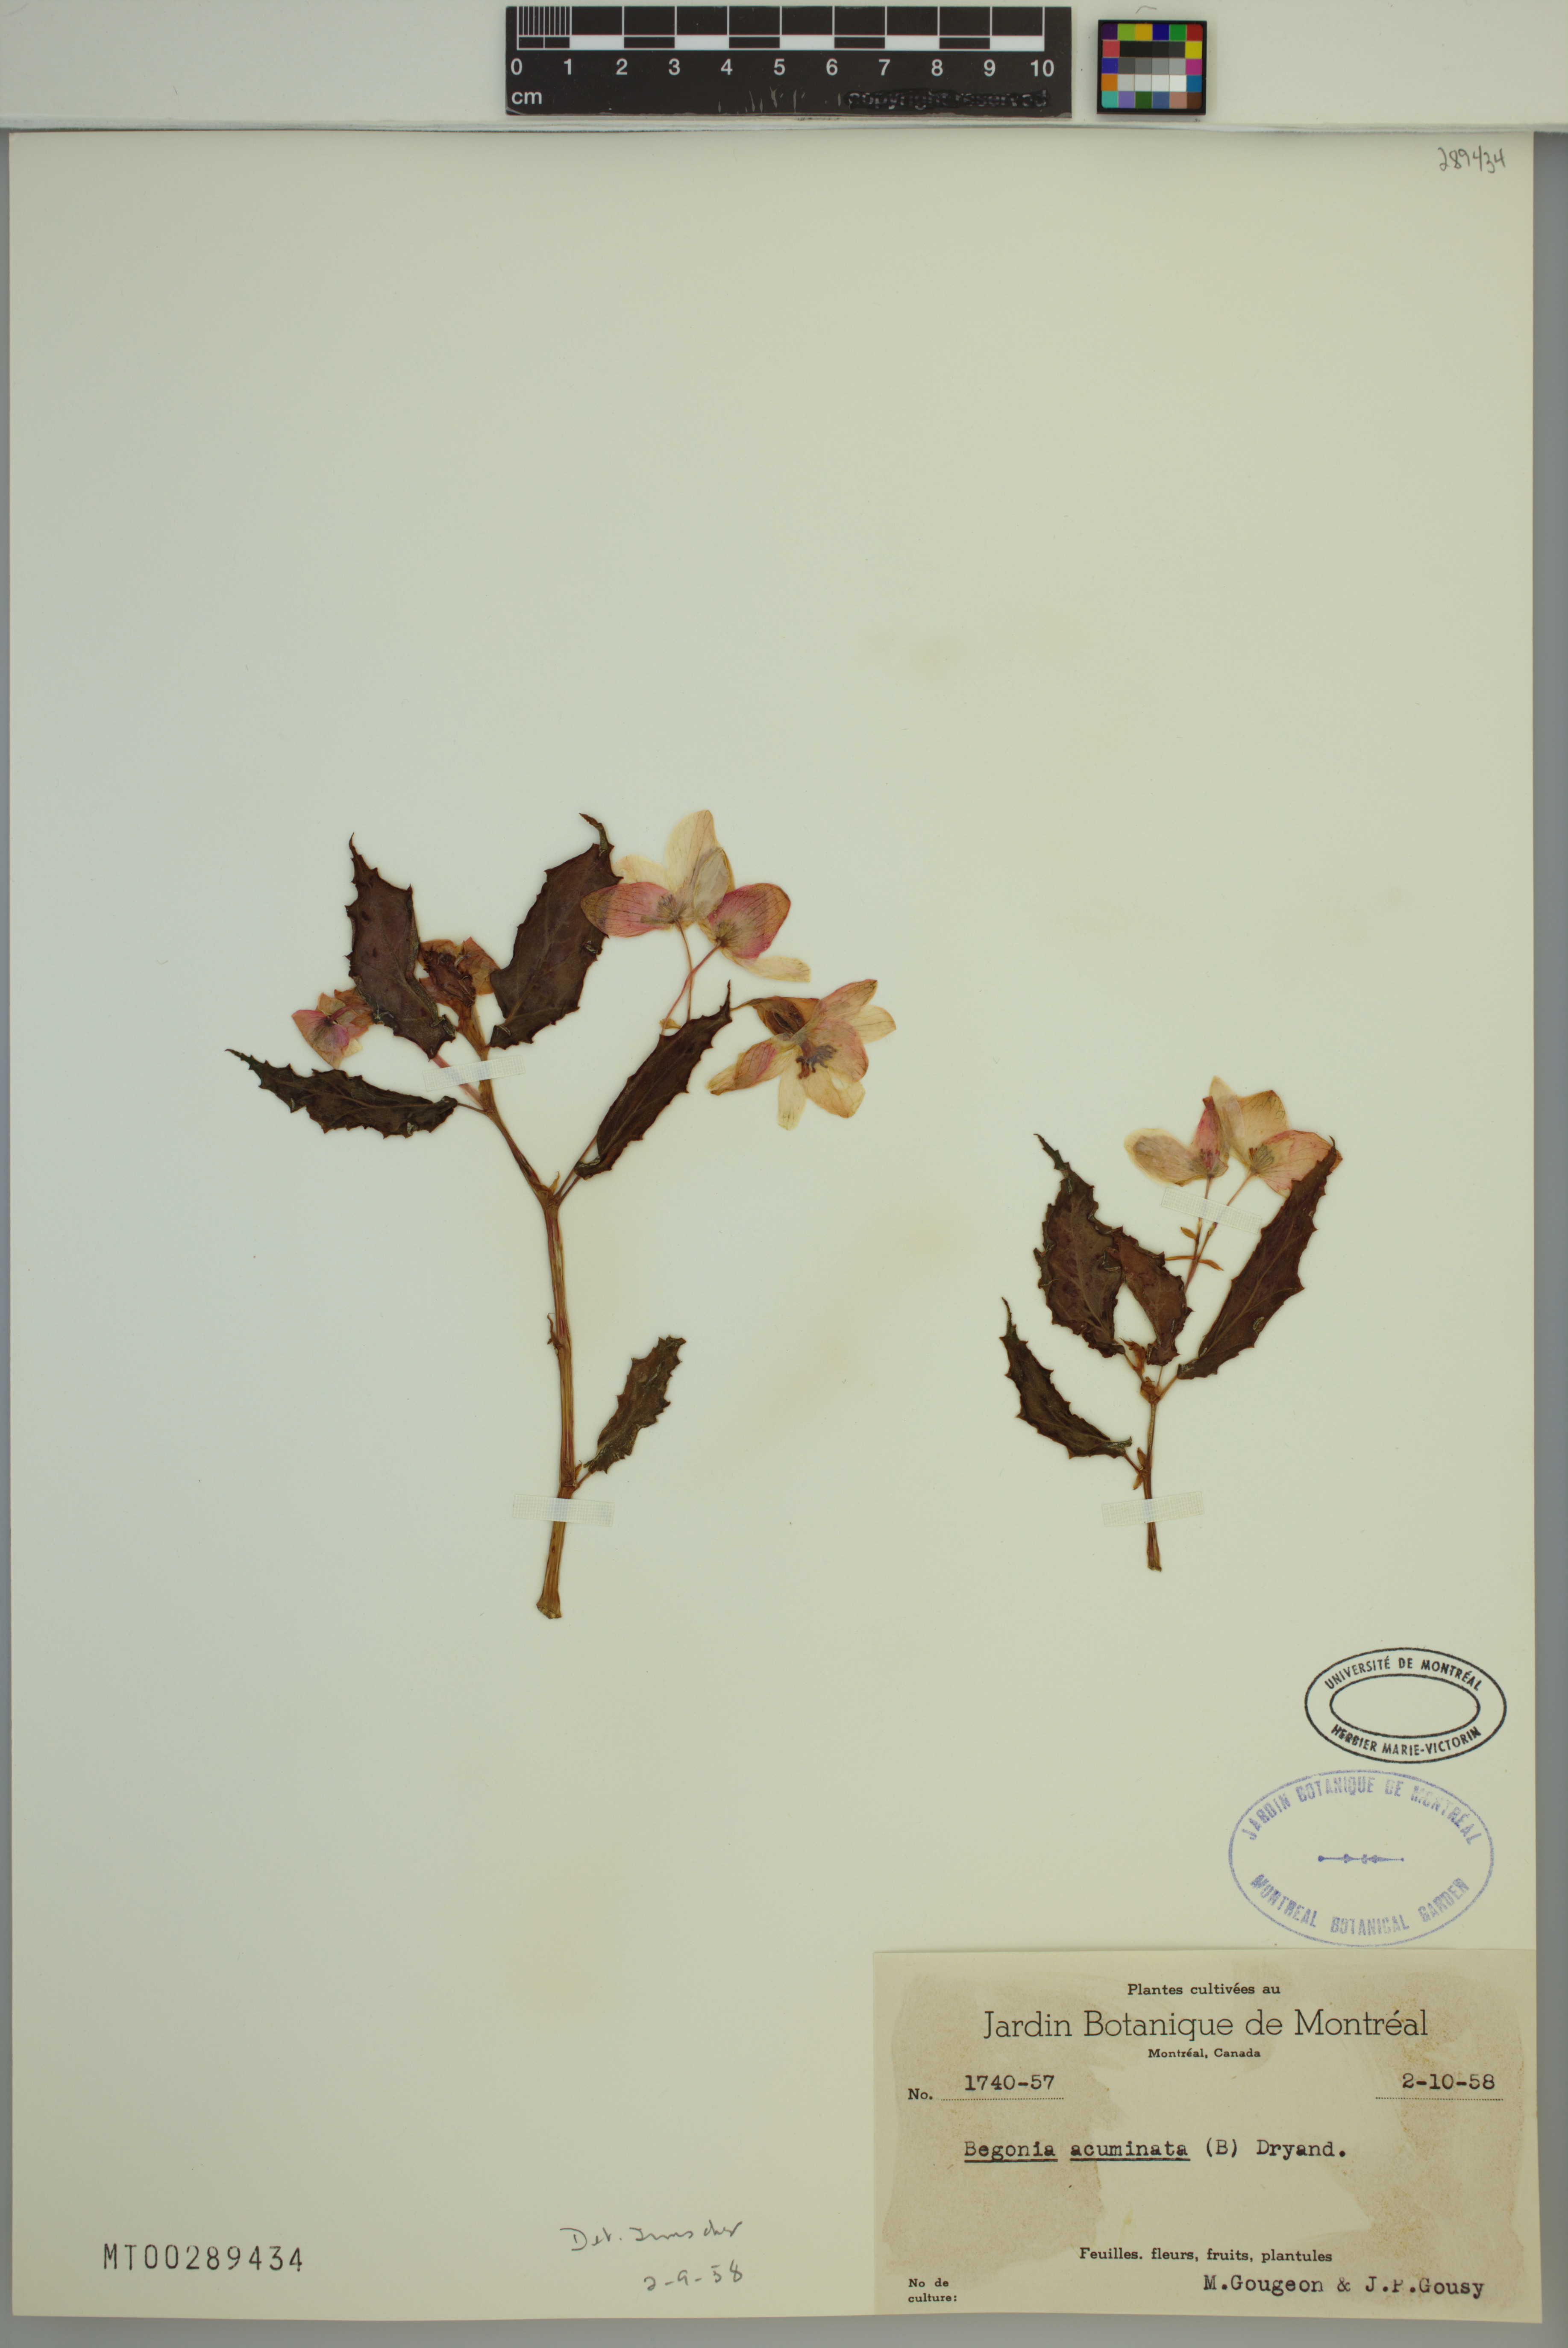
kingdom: Plantae
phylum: Tracheophyta
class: Magnoliopsida
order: Cucurbitales
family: Begoniaceae
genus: Begonia
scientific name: Begonia acutifolia
